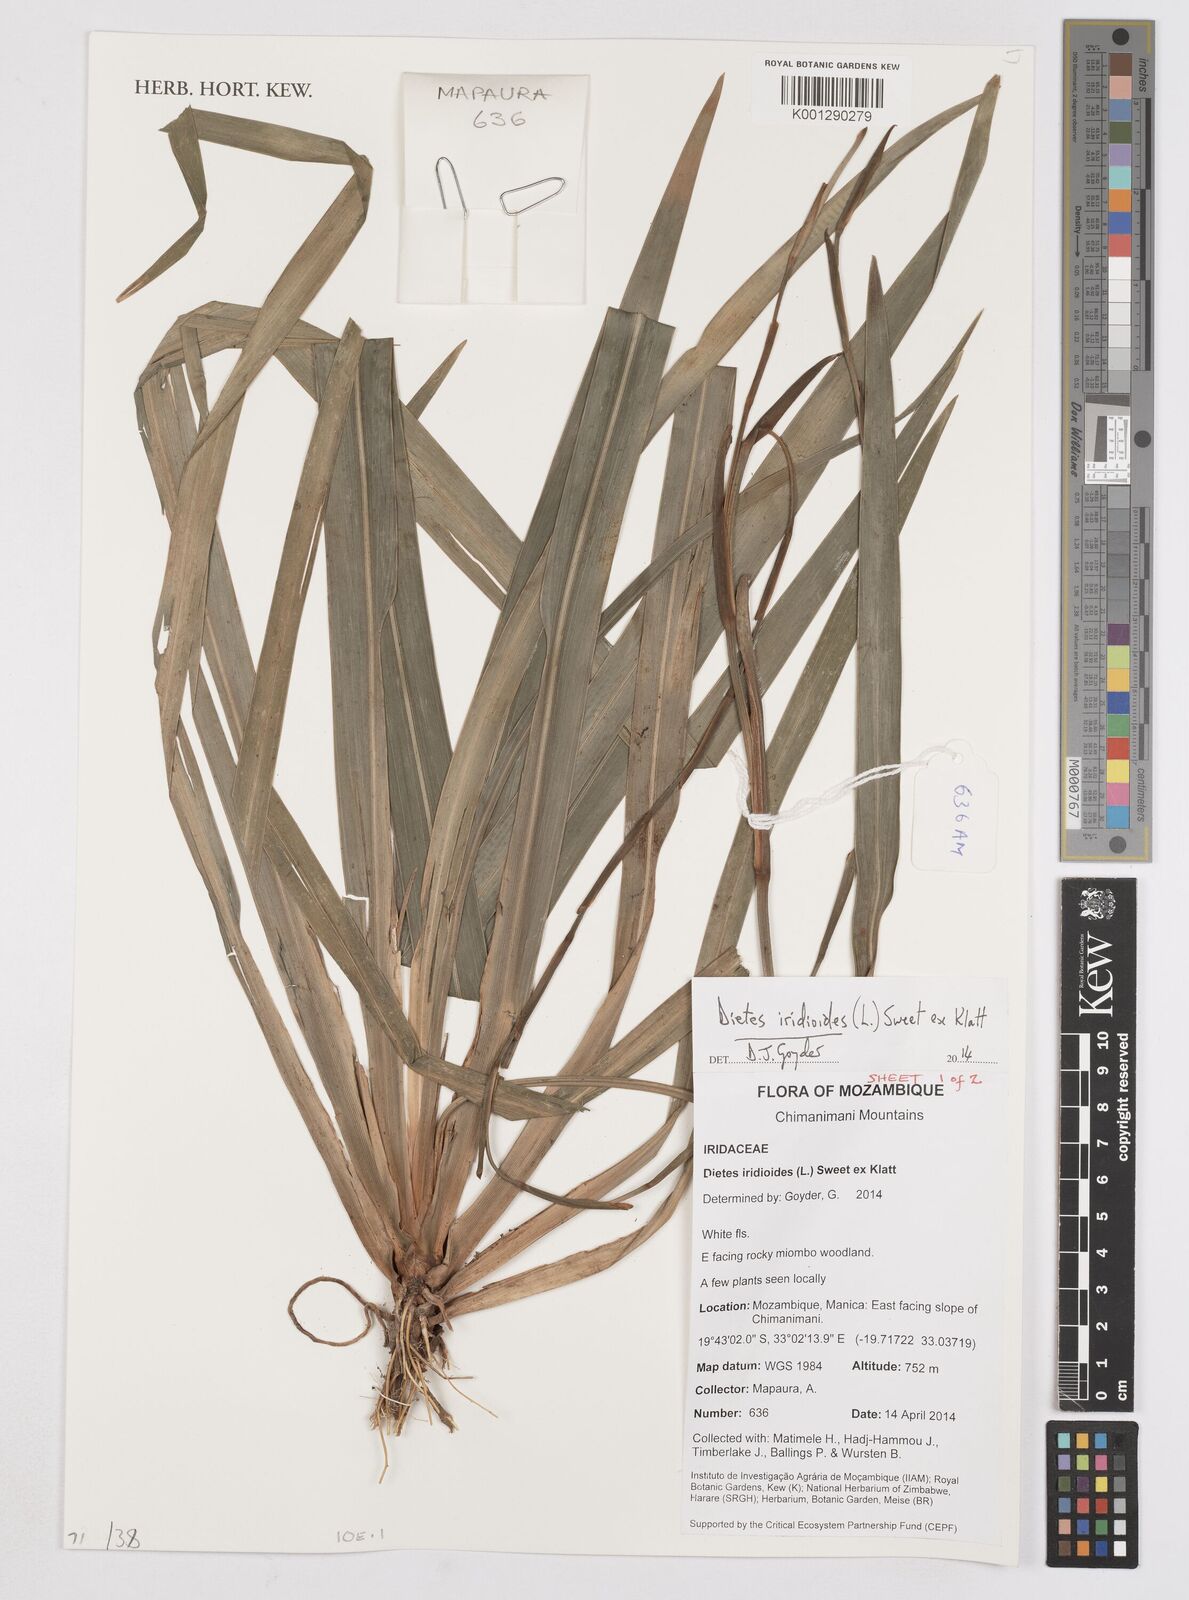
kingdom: Plantae
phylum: Tracheophyta
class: Liliopsida
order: Asparagales
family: Iridaceae
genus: Dietes
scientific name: Dietes iridioides
